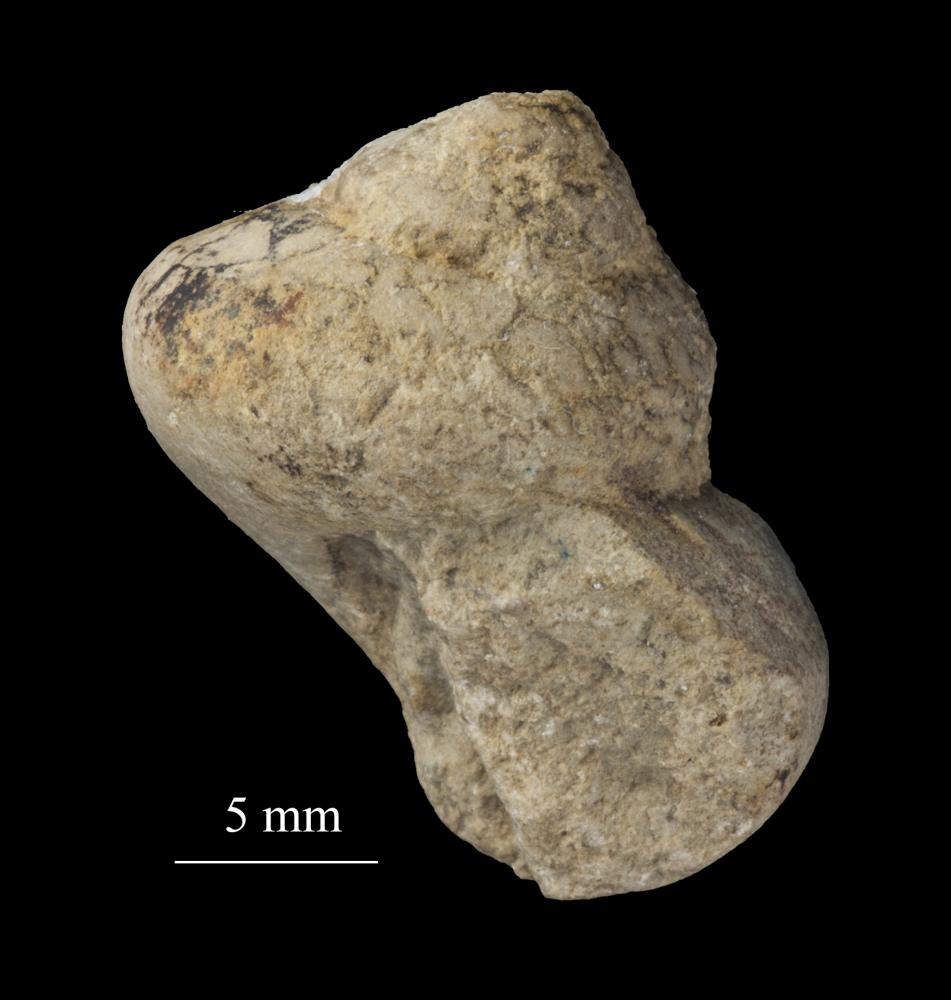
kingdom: Animalia
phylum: Mollusca
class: Gastropoda
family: Lophospiridae
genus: Lophospira
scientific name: Lophospira Worthenia subalata
